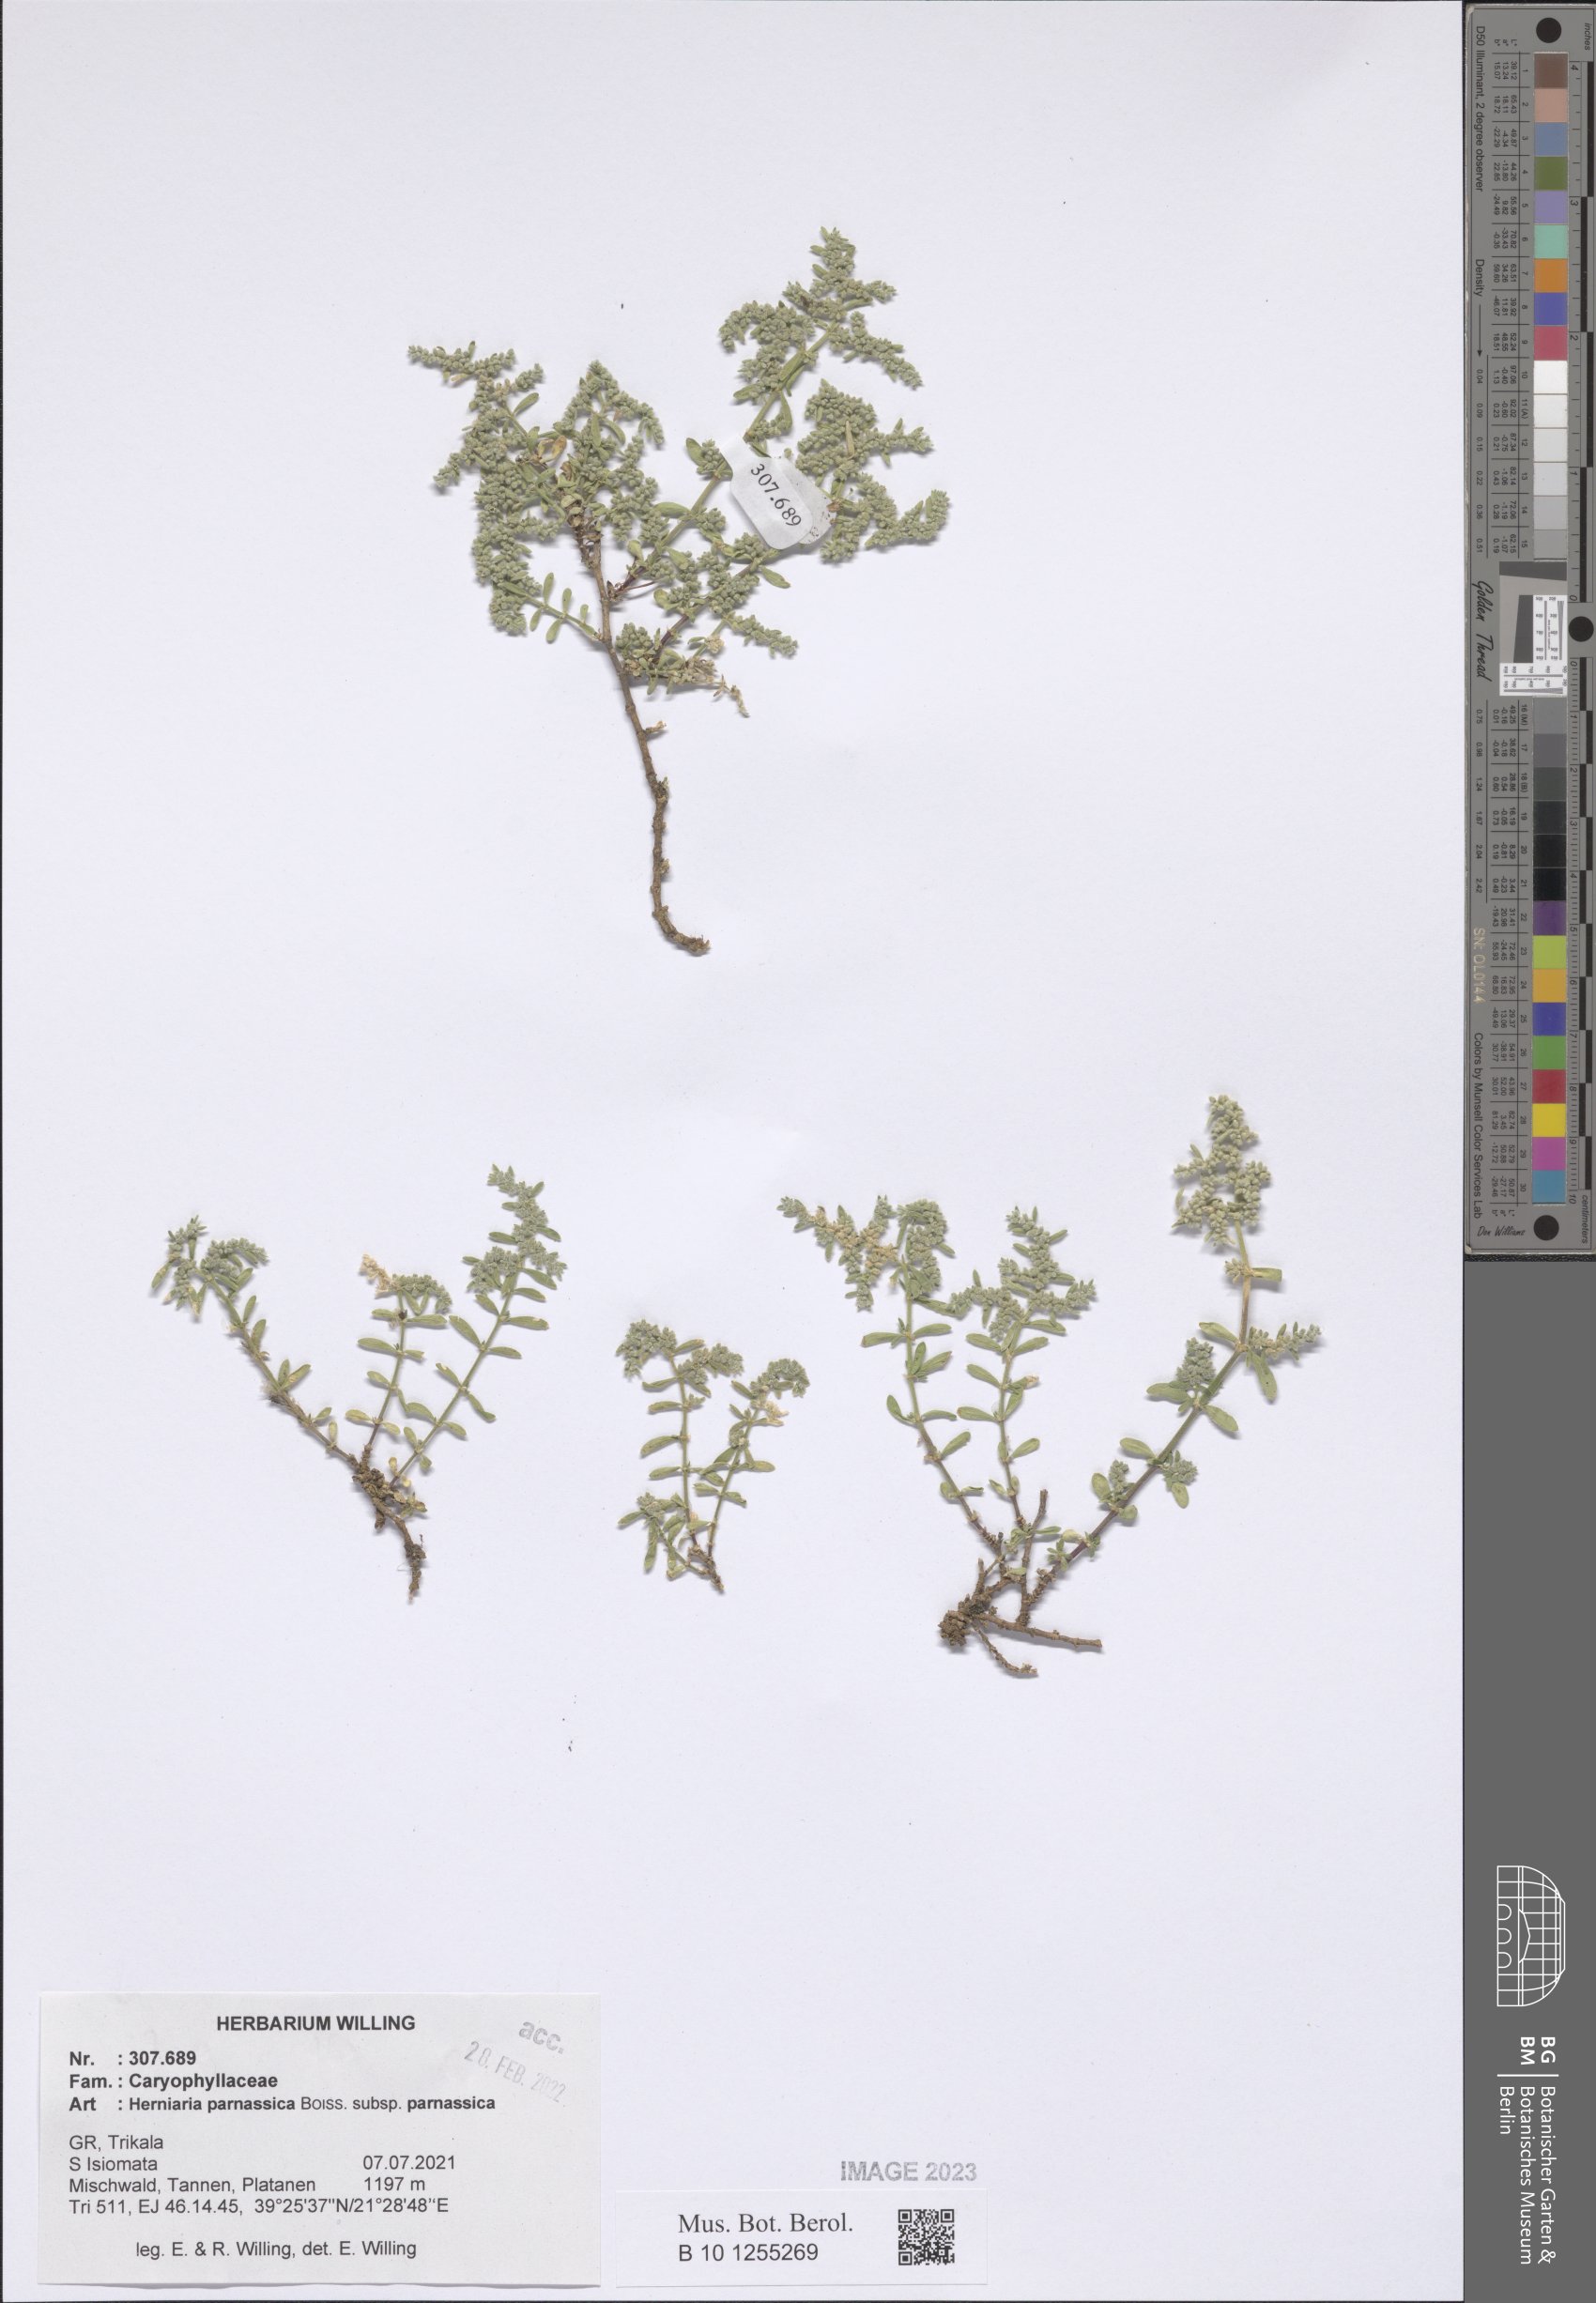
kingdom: Plantae
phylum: Tracheophyta
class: Magnoliopsida
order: Caryophyllales
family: Caryophyllaceae
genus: Herniaria
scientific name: Herniaria parnassica
